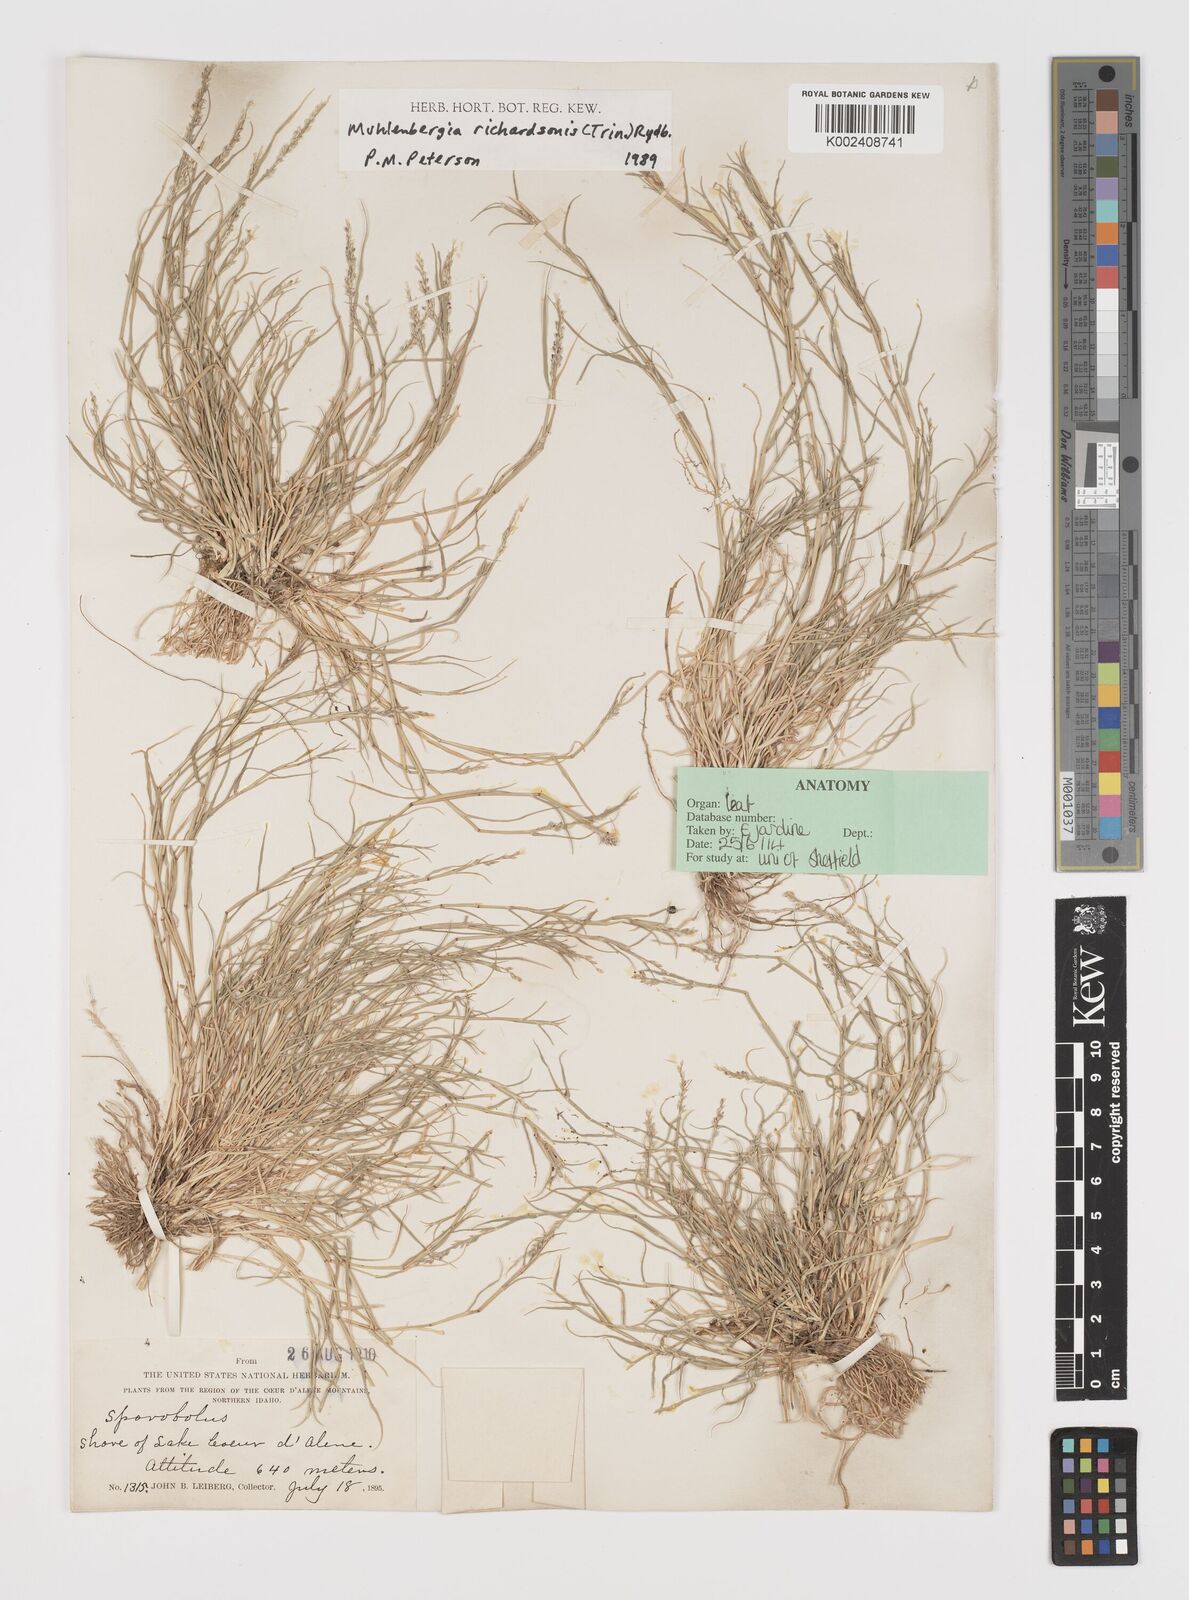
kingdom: Plantae
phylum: Tracheophyta
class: Liliopsida
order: Poales
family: Poaceae
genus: Muhlenbergia
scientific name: Muhlenbergia richardsonis
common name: Mat muhly
